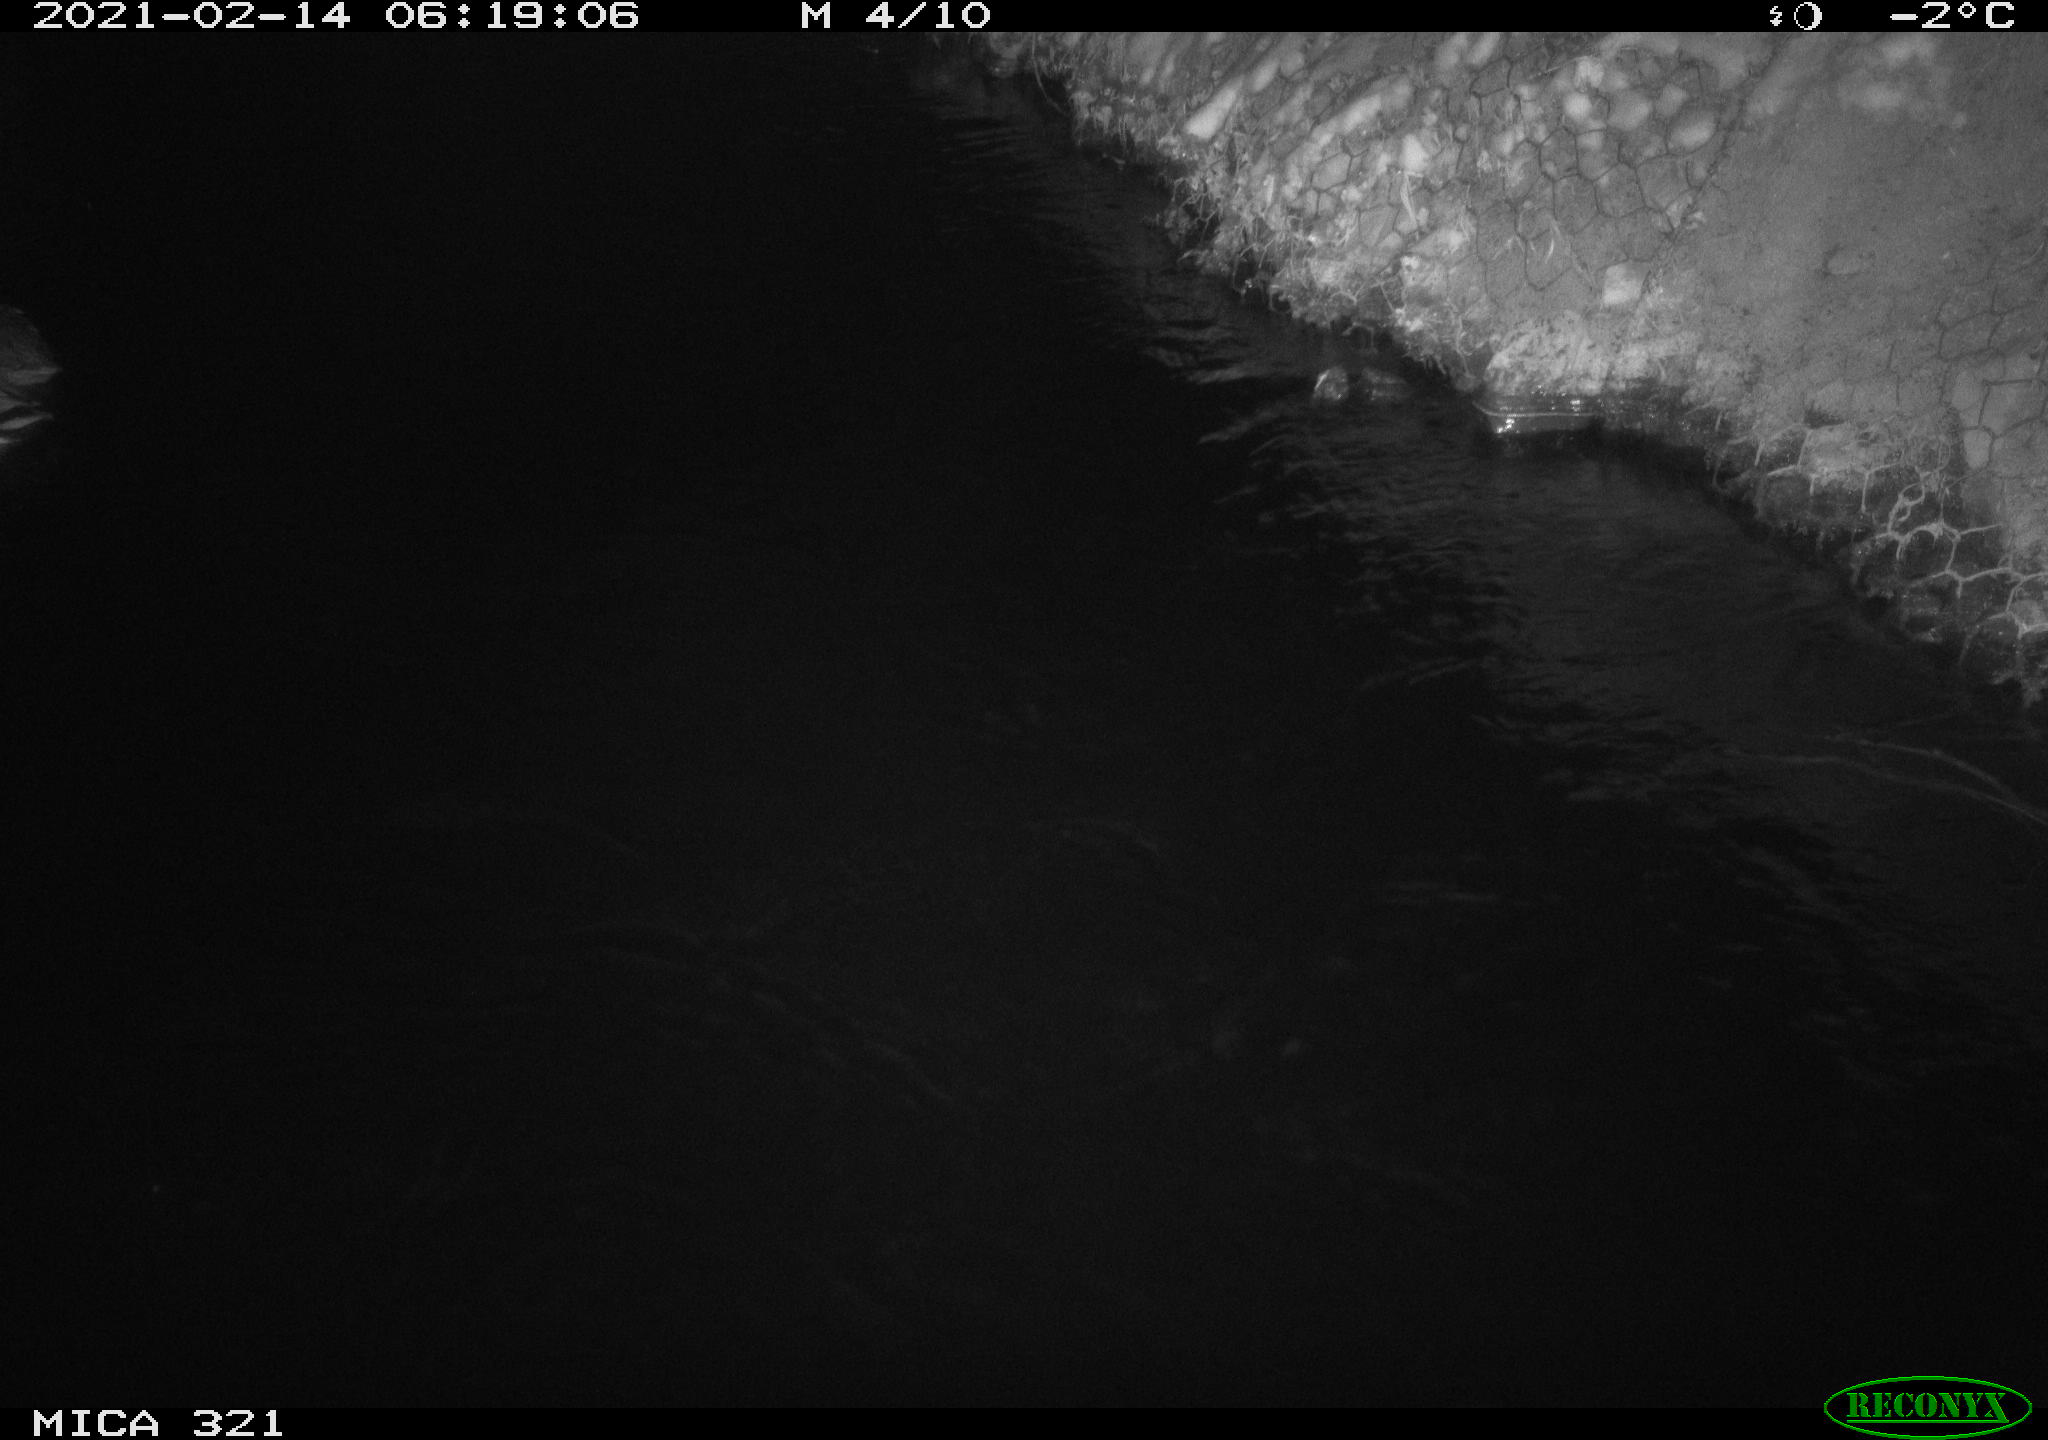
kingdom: Animalia
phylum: Chordata
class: Aves
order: Anseriformes
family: Anatidae
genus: Anas
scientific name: Anas platyrhynchos
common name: Mallard
